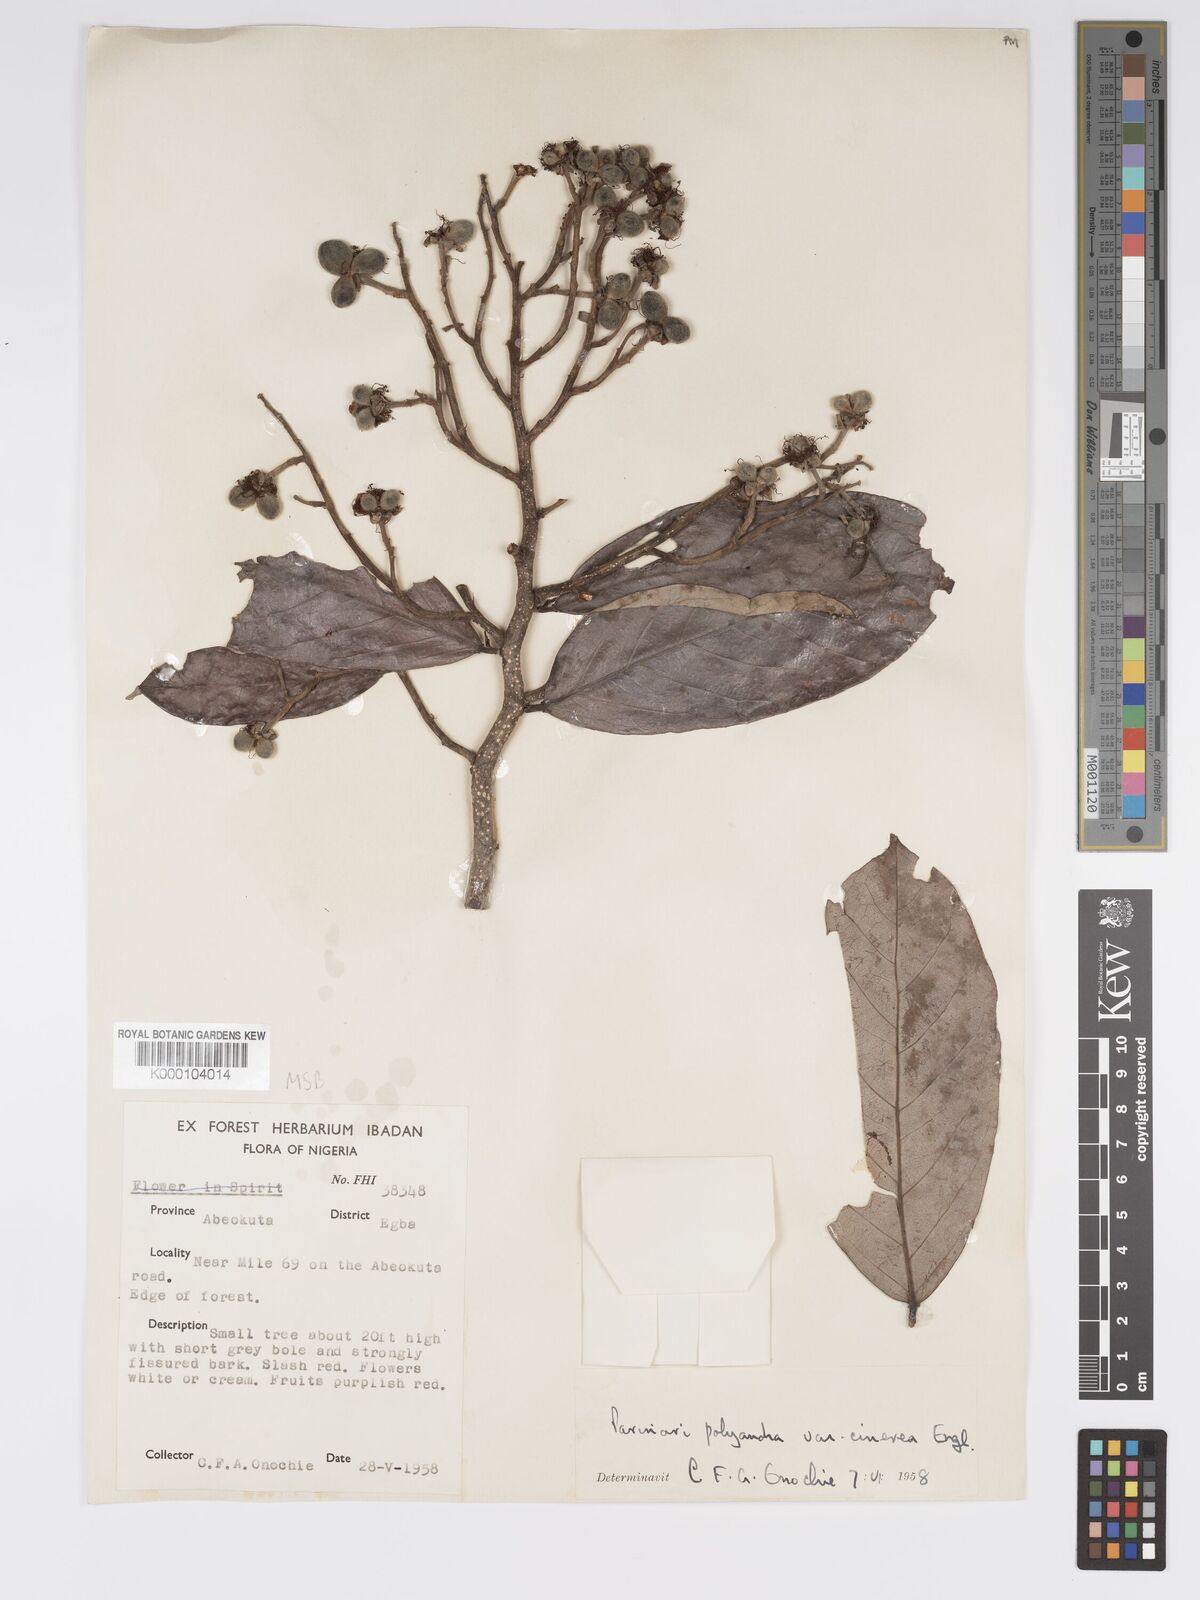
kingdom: Plantae
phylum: Tracheophyta
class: Magnoliopsida
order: Malpighiales
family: Chrysobalanaceae
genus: Maranthes
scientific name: Maranthes polyandra
